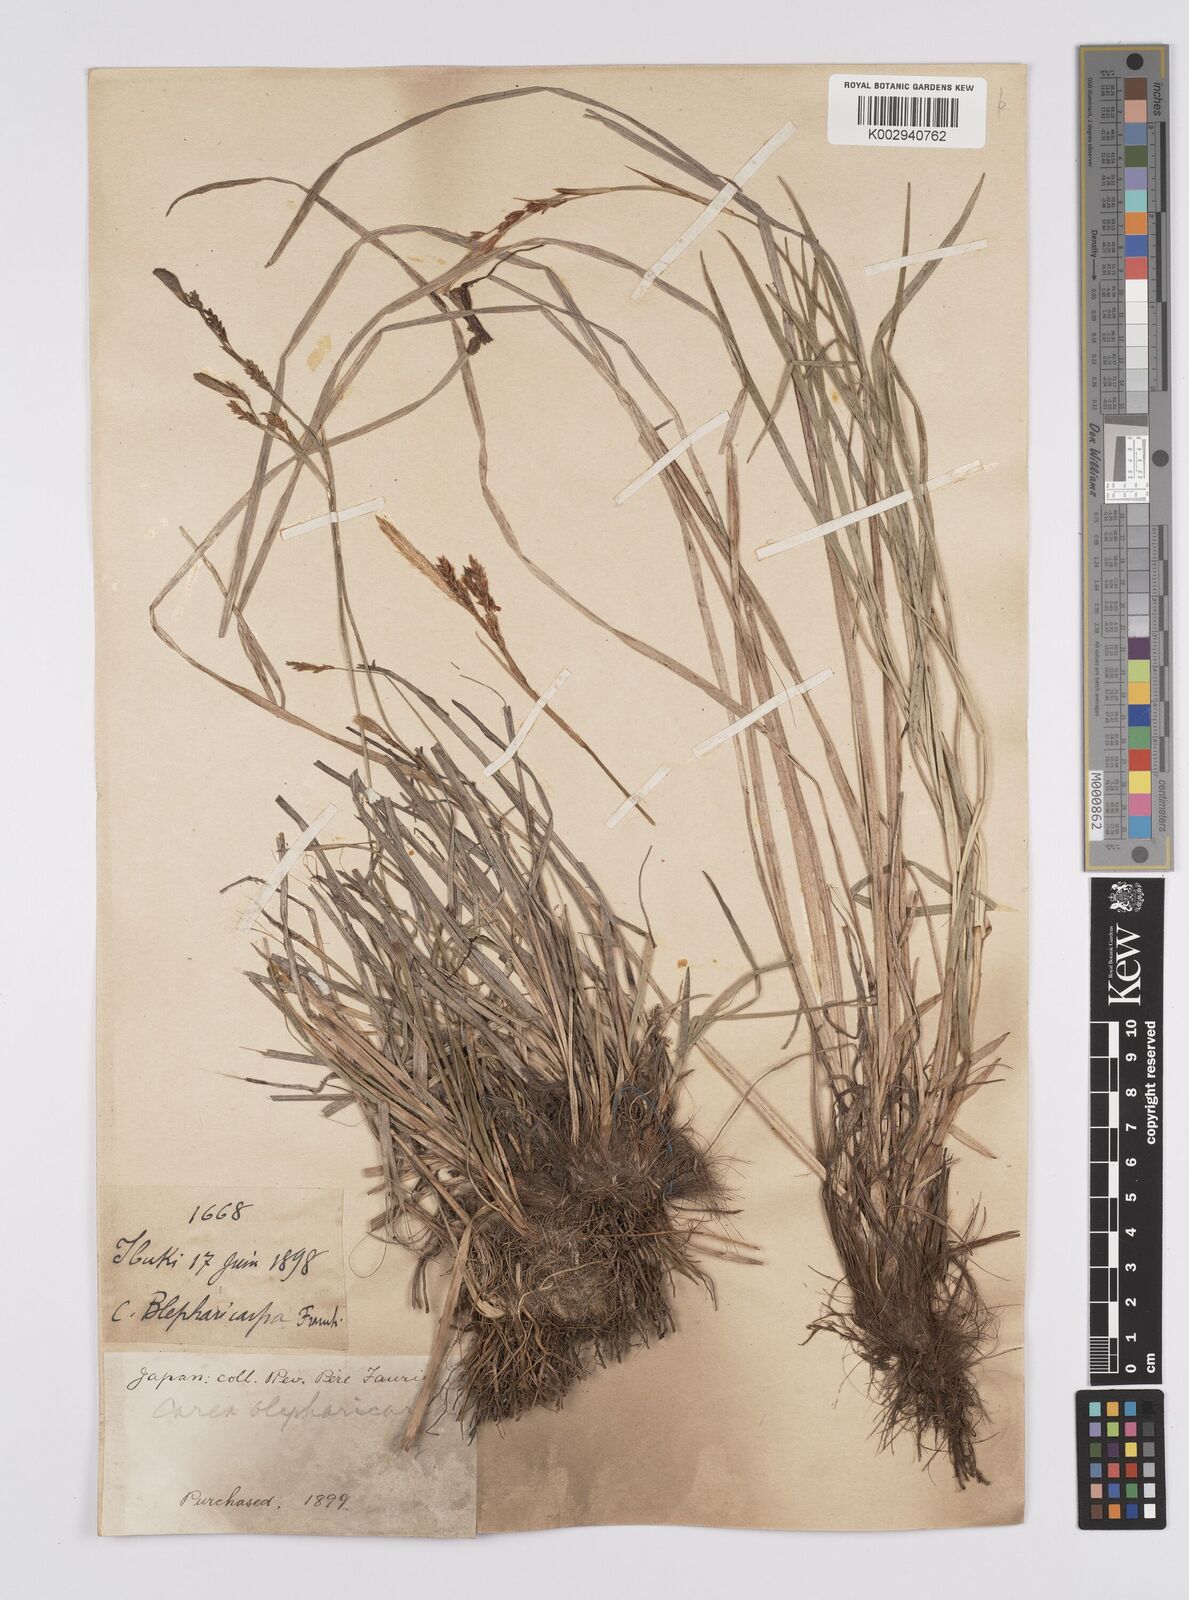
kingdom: Plantae
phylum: Tracheophyta
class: Liliopsida
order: Poales
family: Cyperaceae
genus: Carex
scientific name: Carex blepharicarpa
